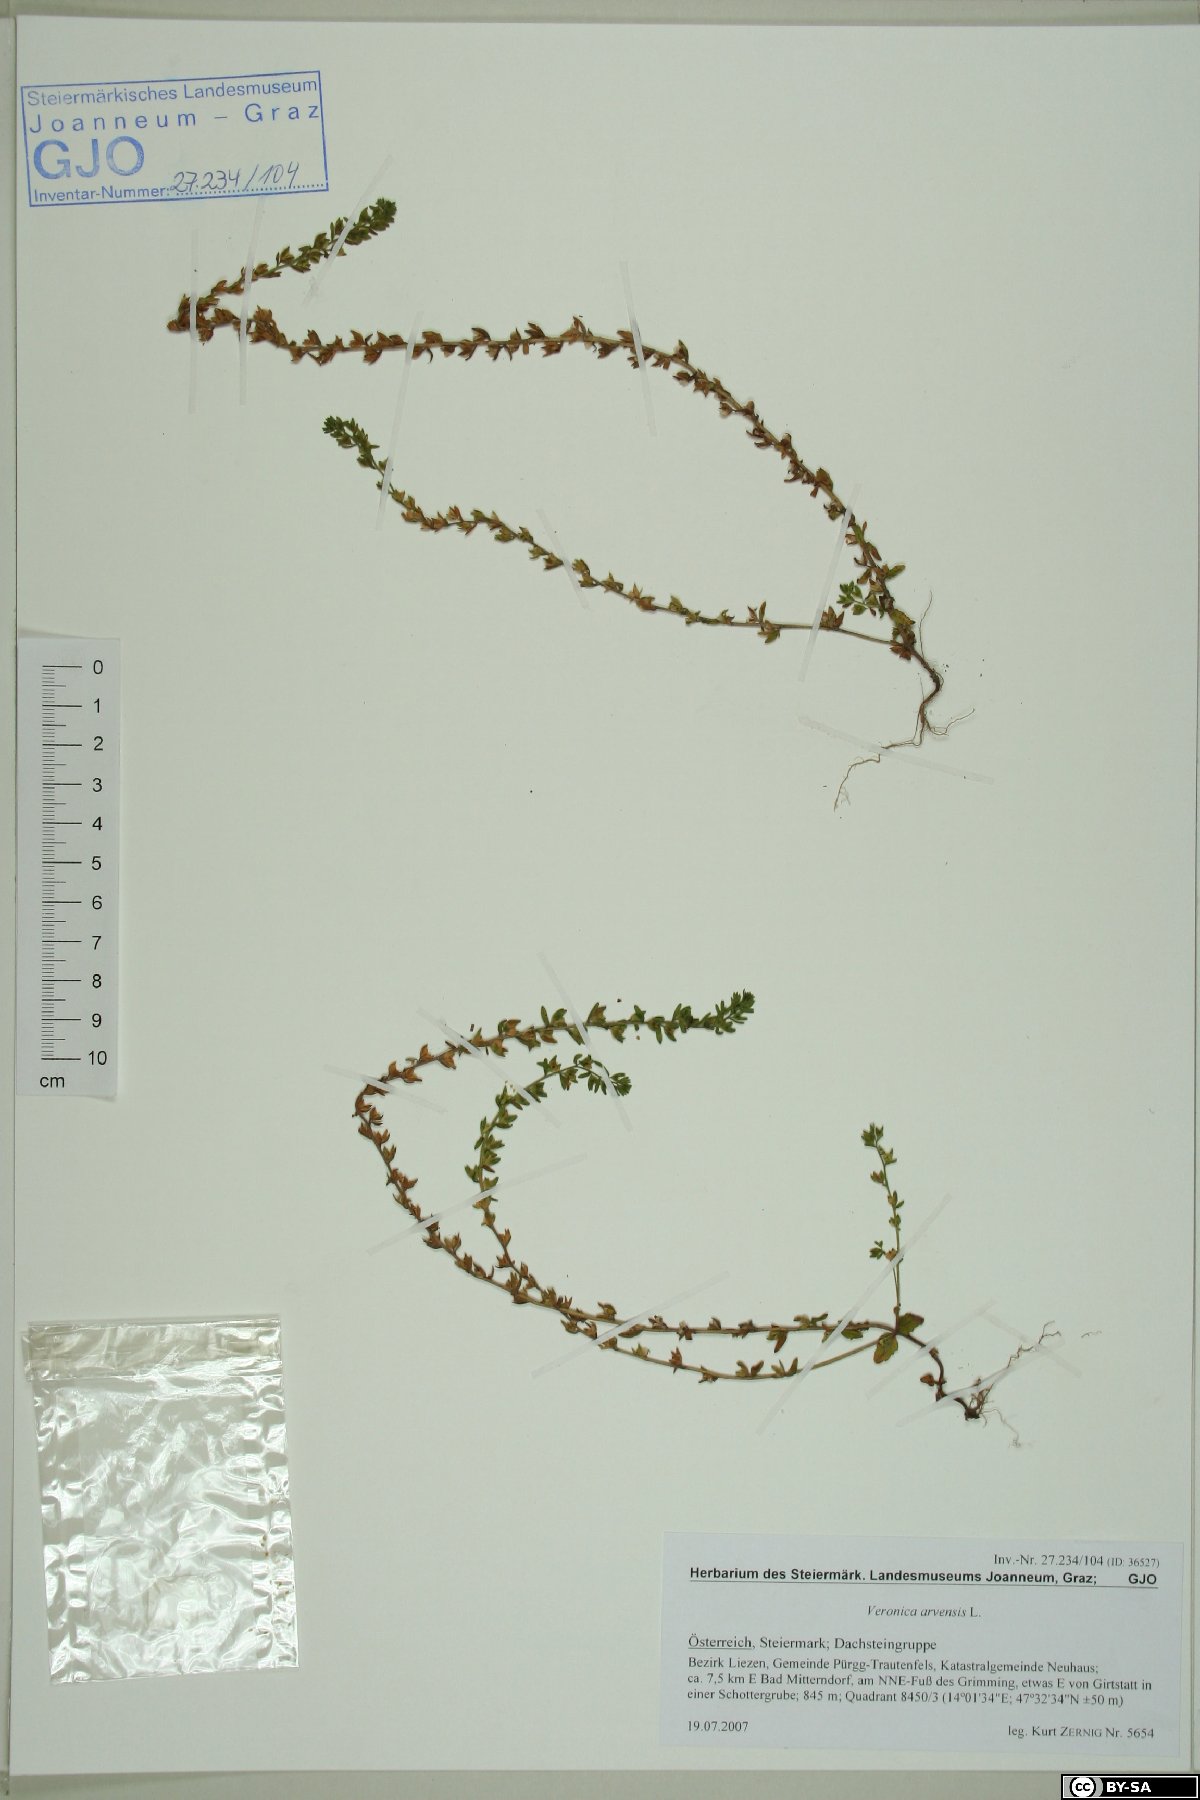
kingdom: Plantae
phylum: Tracheophyta
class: Magnoliopsida
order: Lamiales
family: Plantaginaceae
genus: Veronica
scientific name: Veronica arvensis
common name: Corn speedwell
